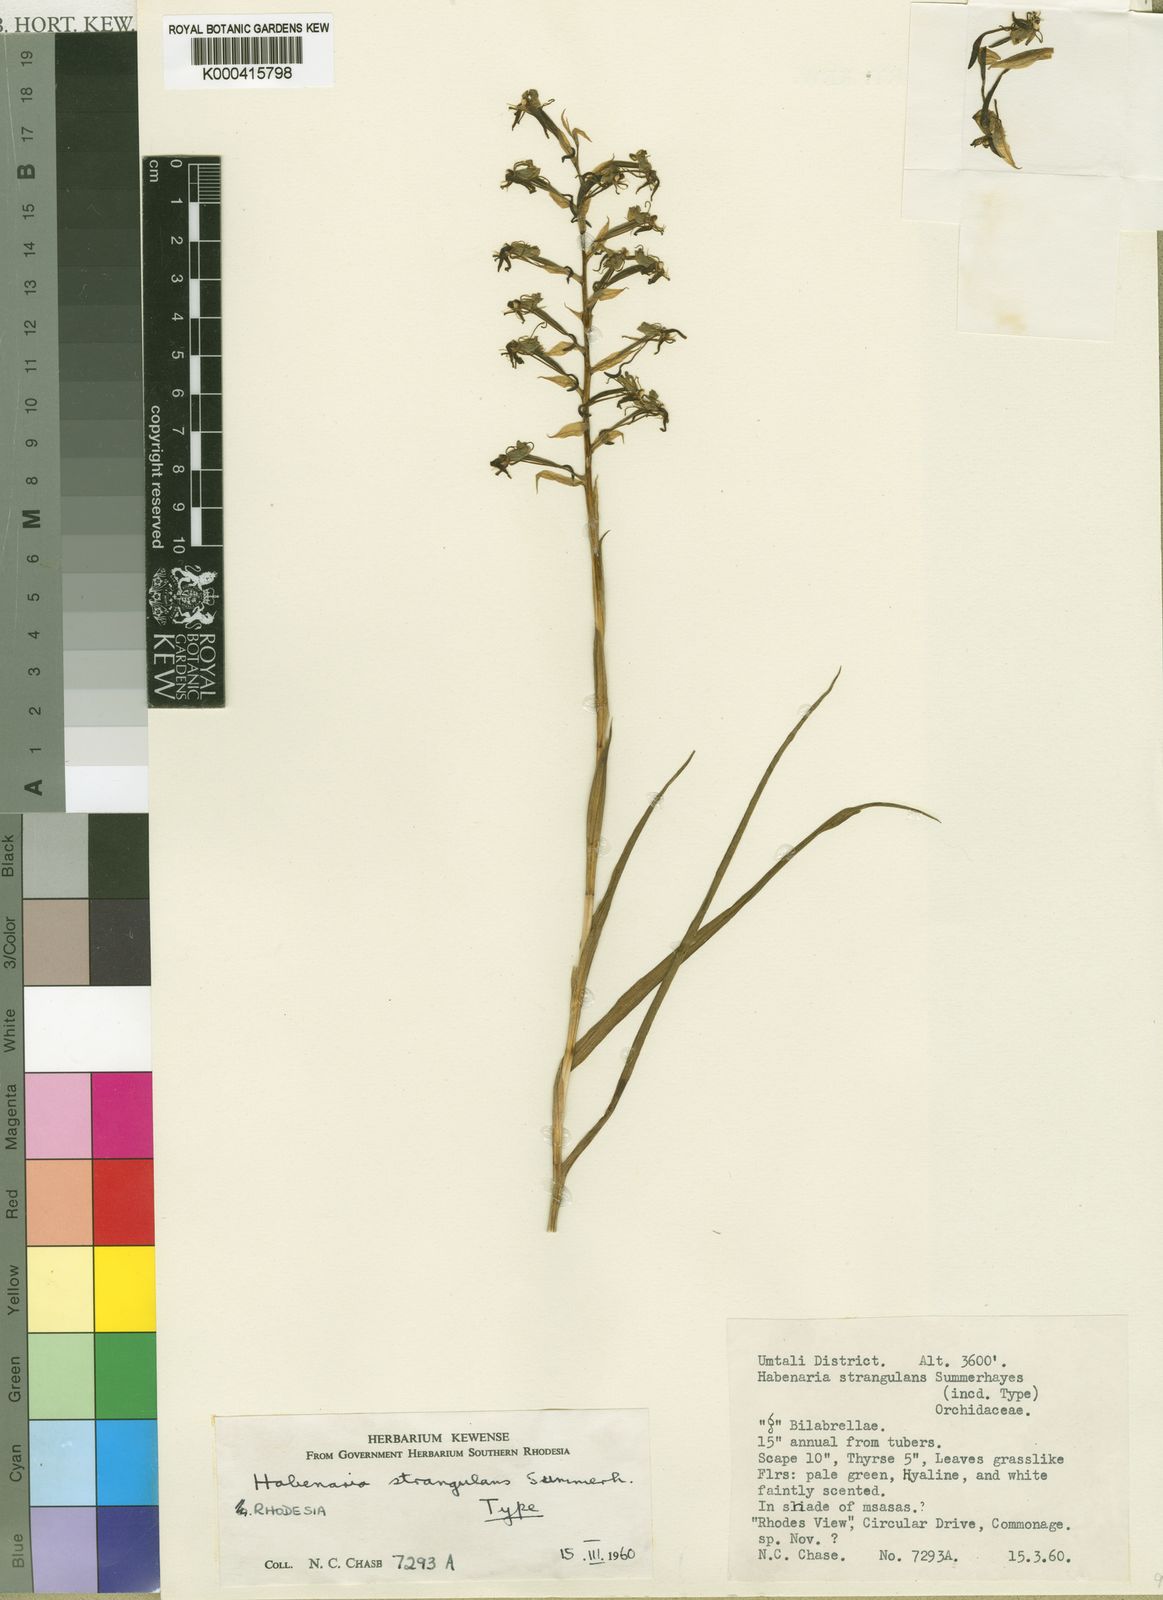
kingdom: Plantae
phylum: Tracheophyta
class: Liliopsida
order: Asparagales
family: Orchidaceae
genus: Habenaria
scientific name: Habenaria strangulans
